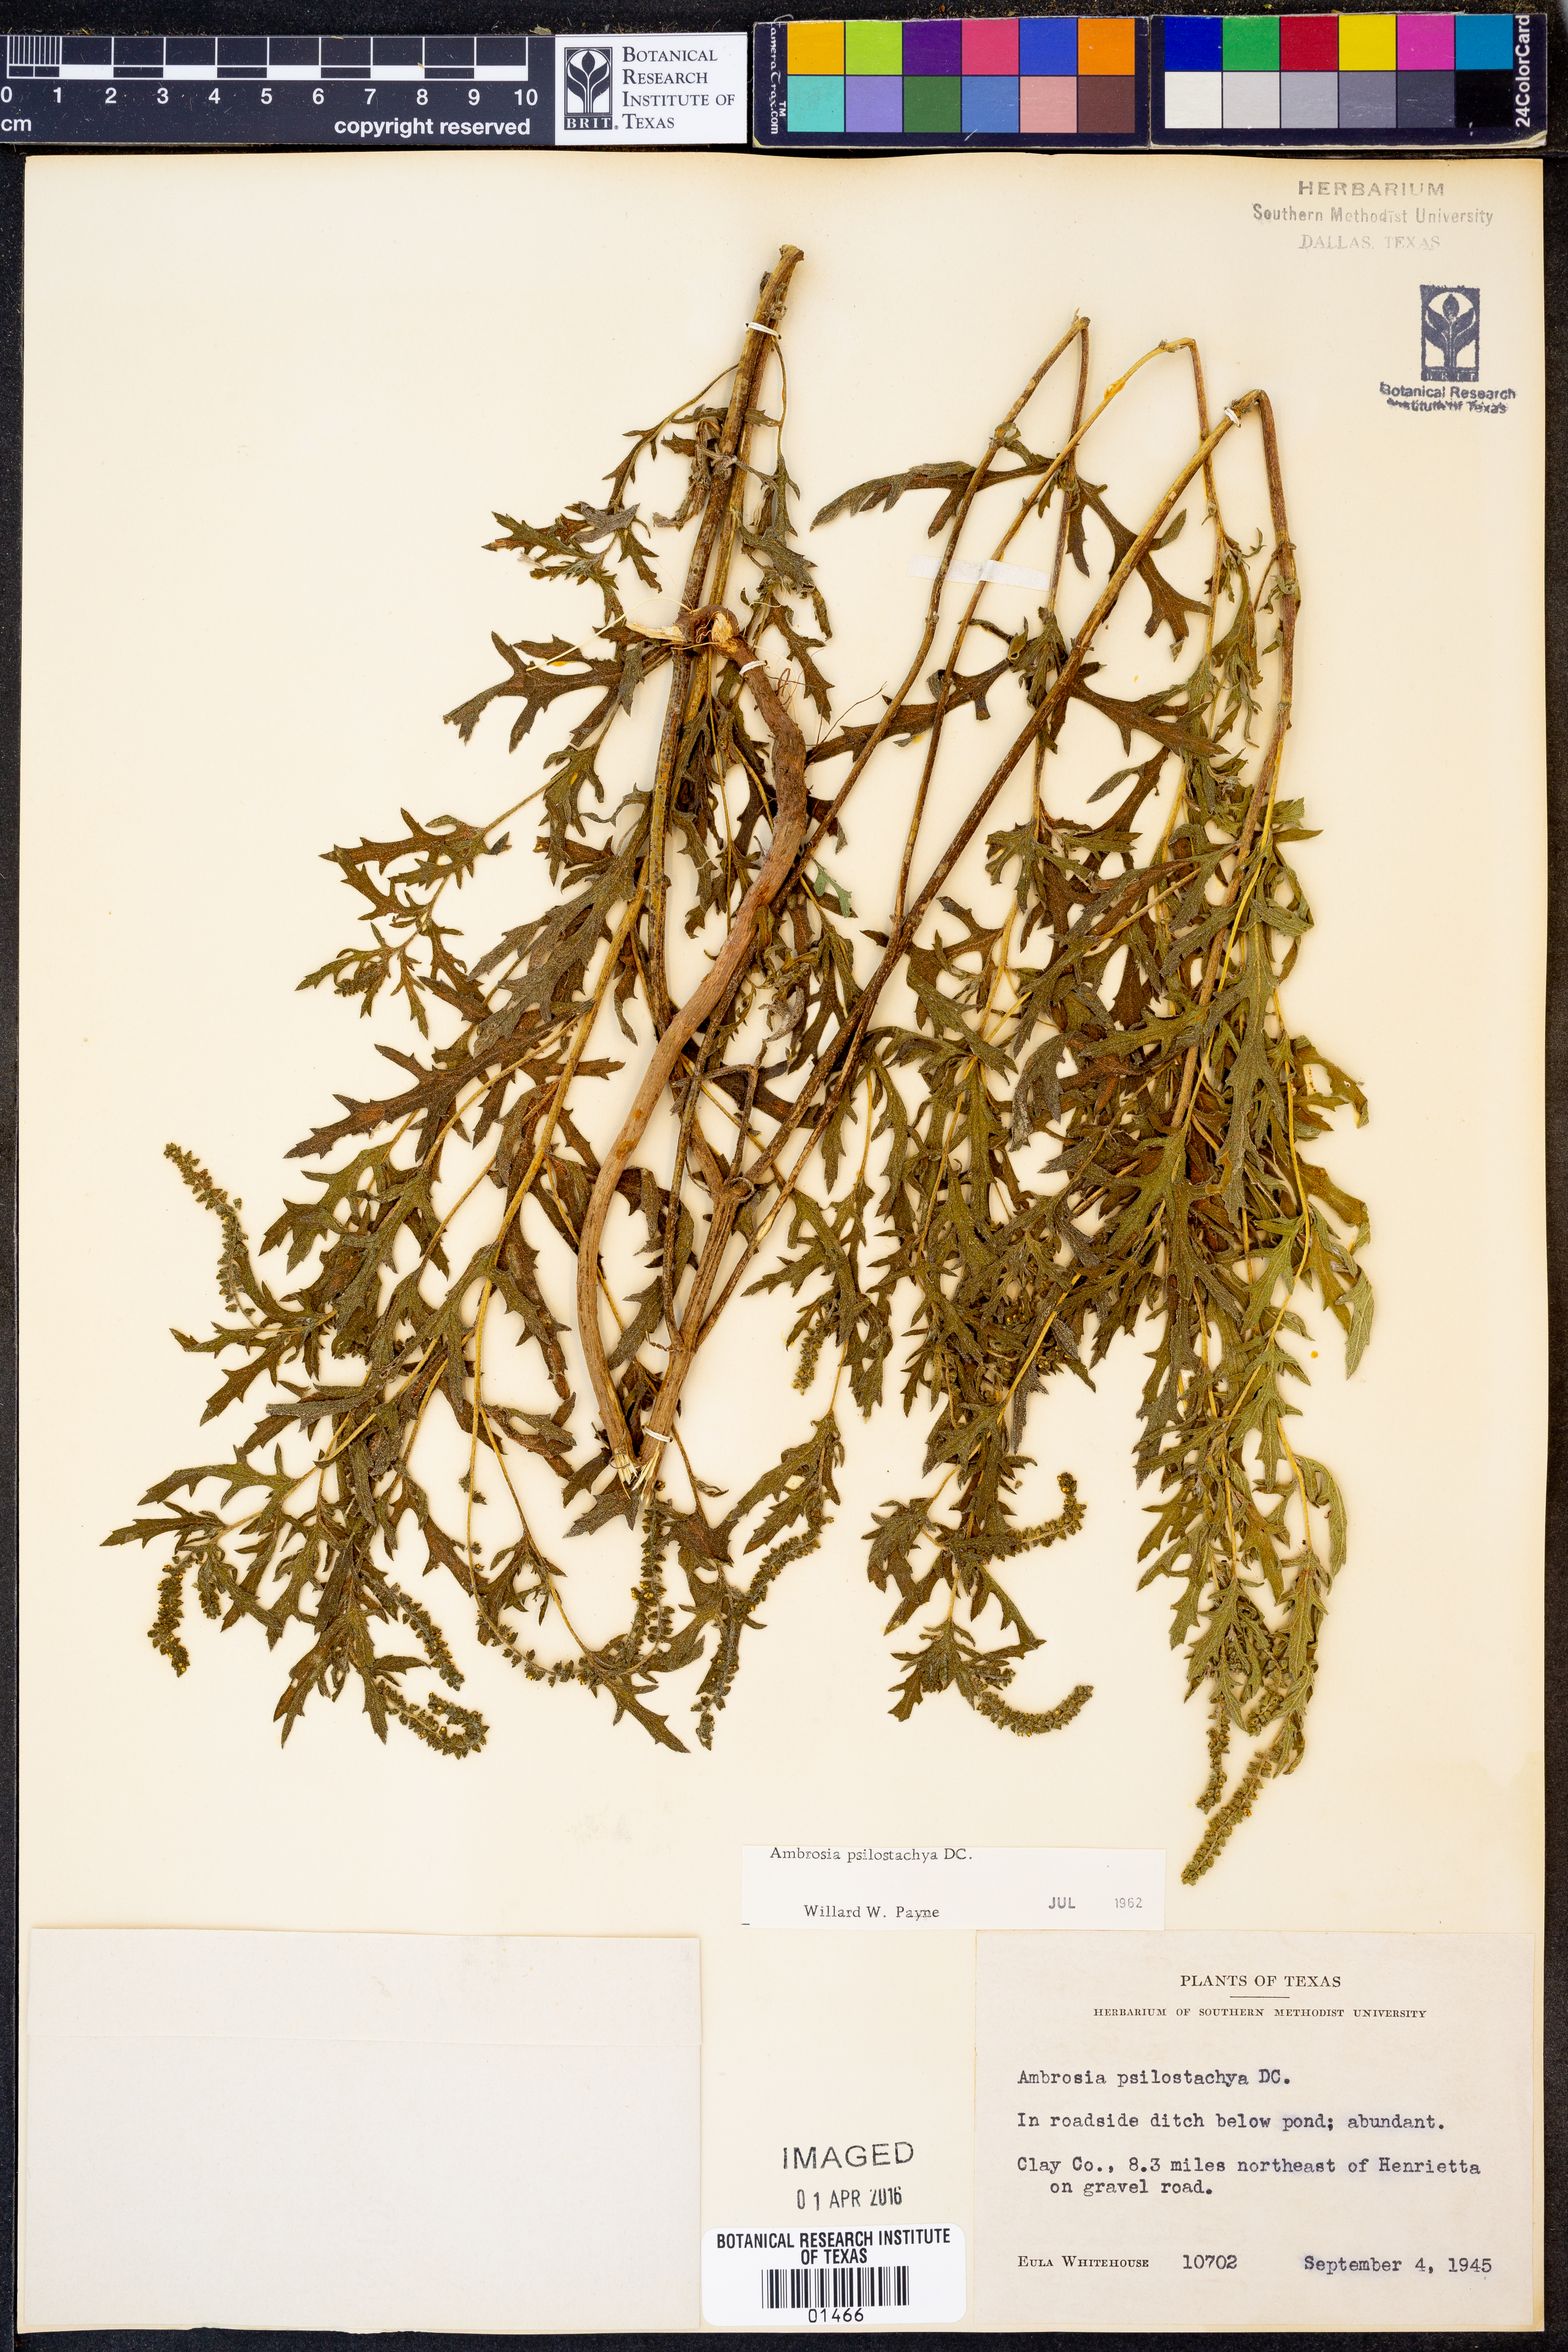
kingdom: Plantae
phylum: Tracheophyta
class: Magnoliopsida
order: Asterales
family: Asteraceae
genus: Ambrosia
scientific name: Ambrosia psilostachya
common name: Perennial ragweed
